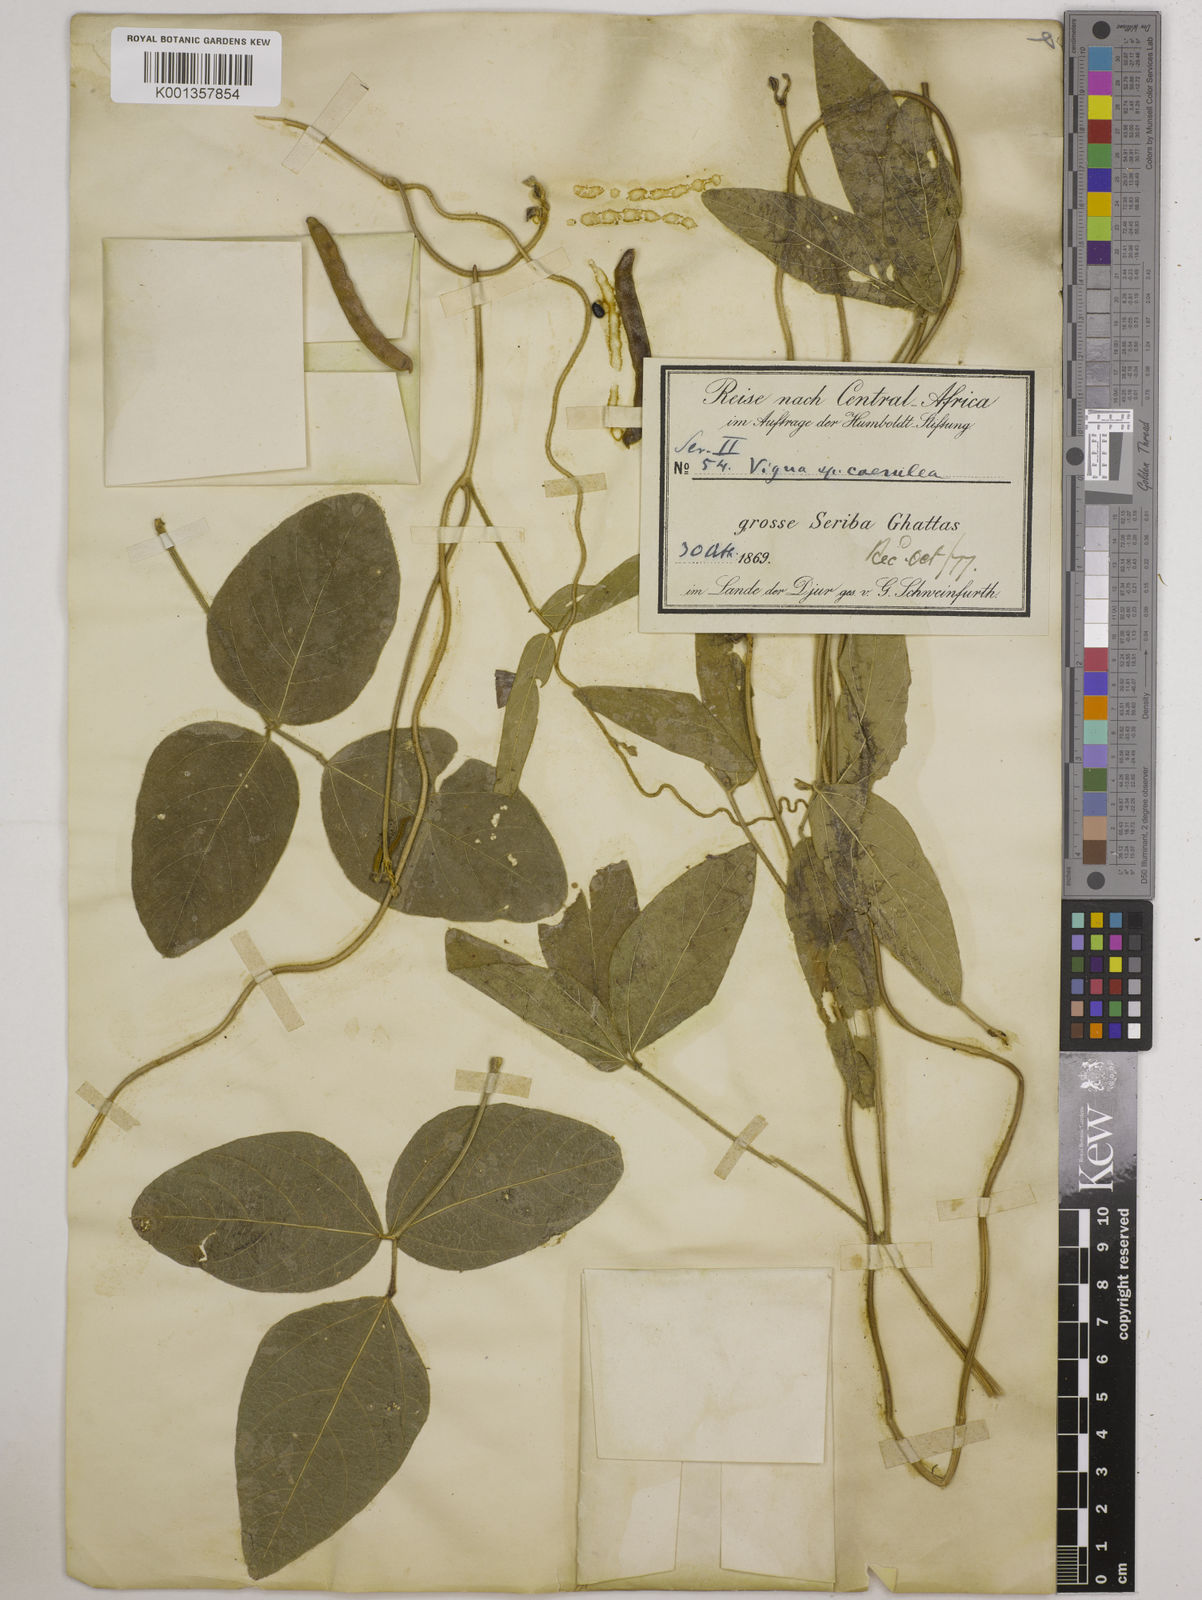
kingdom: Plantae
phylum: Tracheophyta
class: Magnoliopsida
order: Fabales
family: Fabaceae
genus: Vigna
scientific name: Vigna ambacensis
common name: Tsarkiyan zomo
